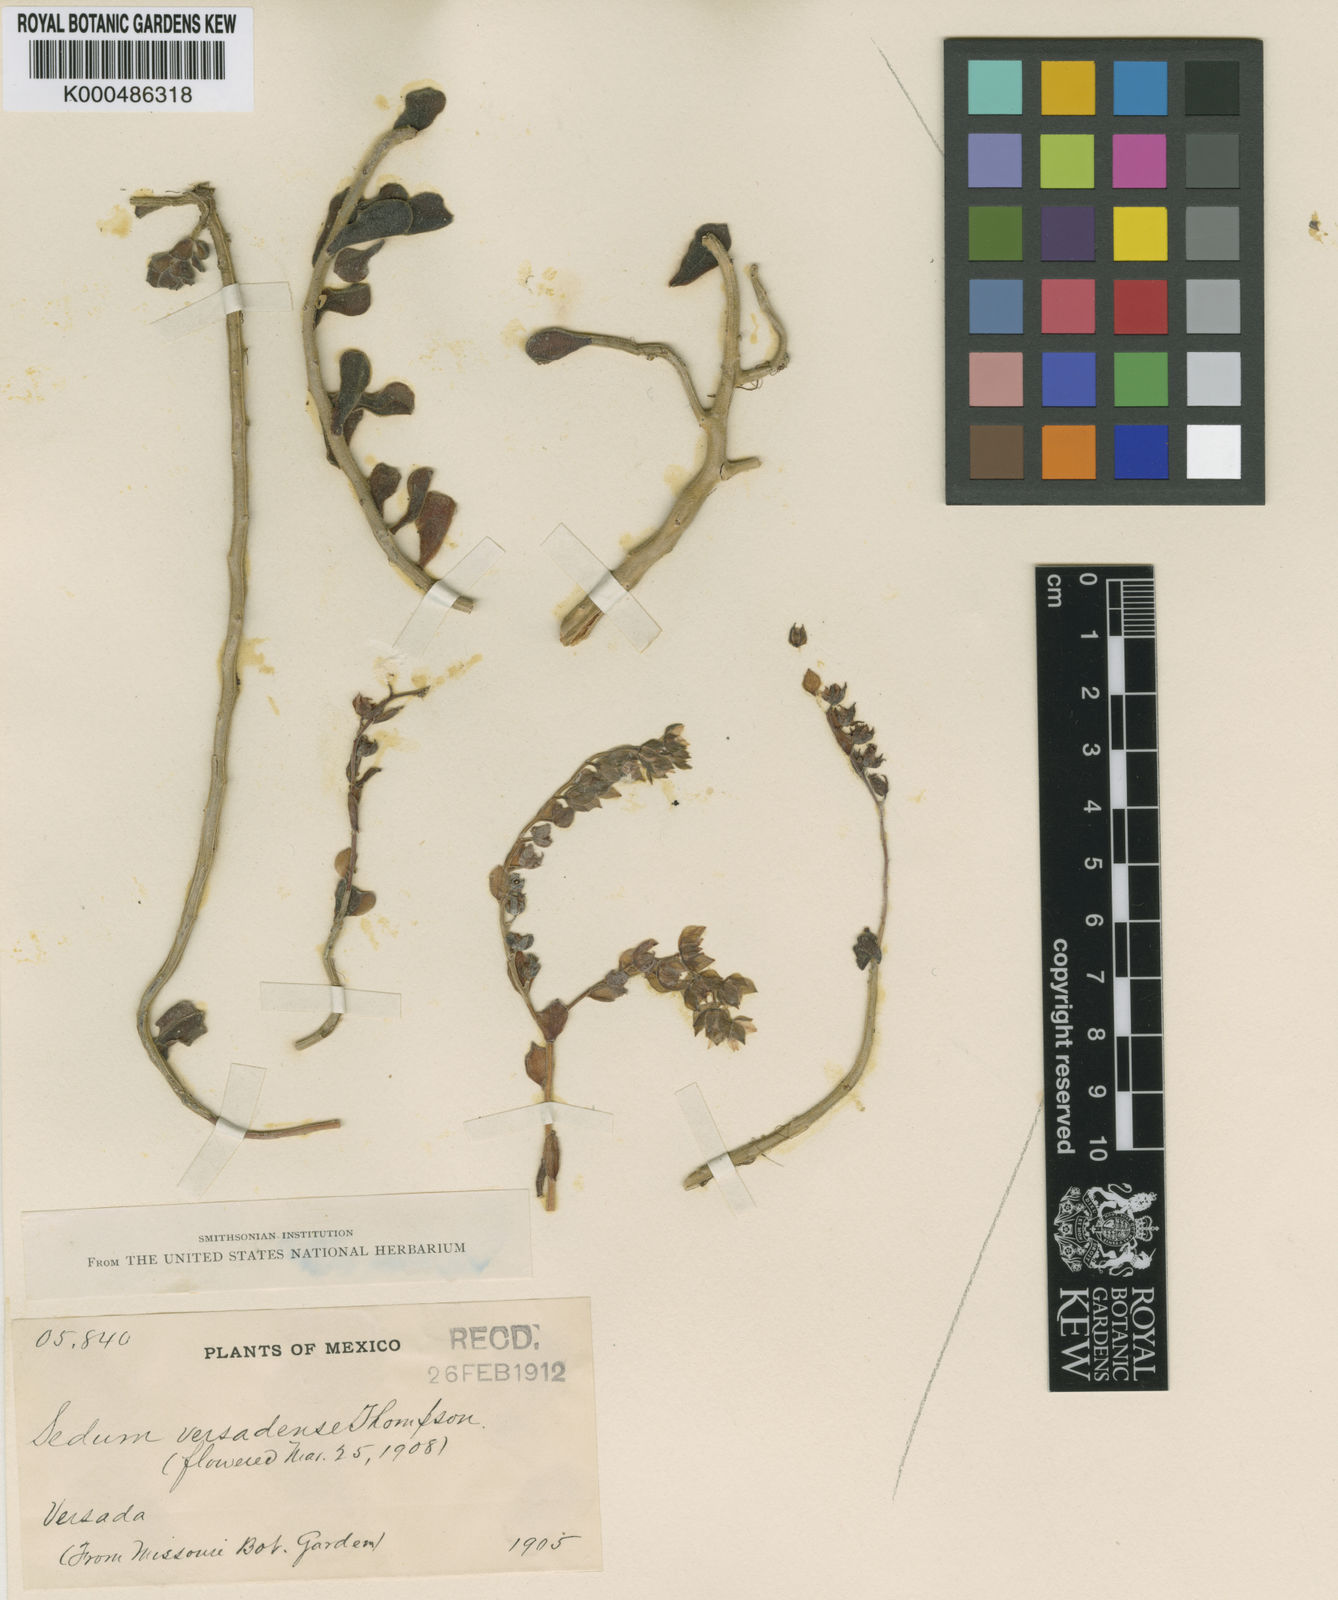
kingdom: Plantae
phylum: Tracheophyta
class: Magnoliopsida
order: Saxifragales
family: Crassulaceae
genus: Sedum
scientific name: Sedum versadense
